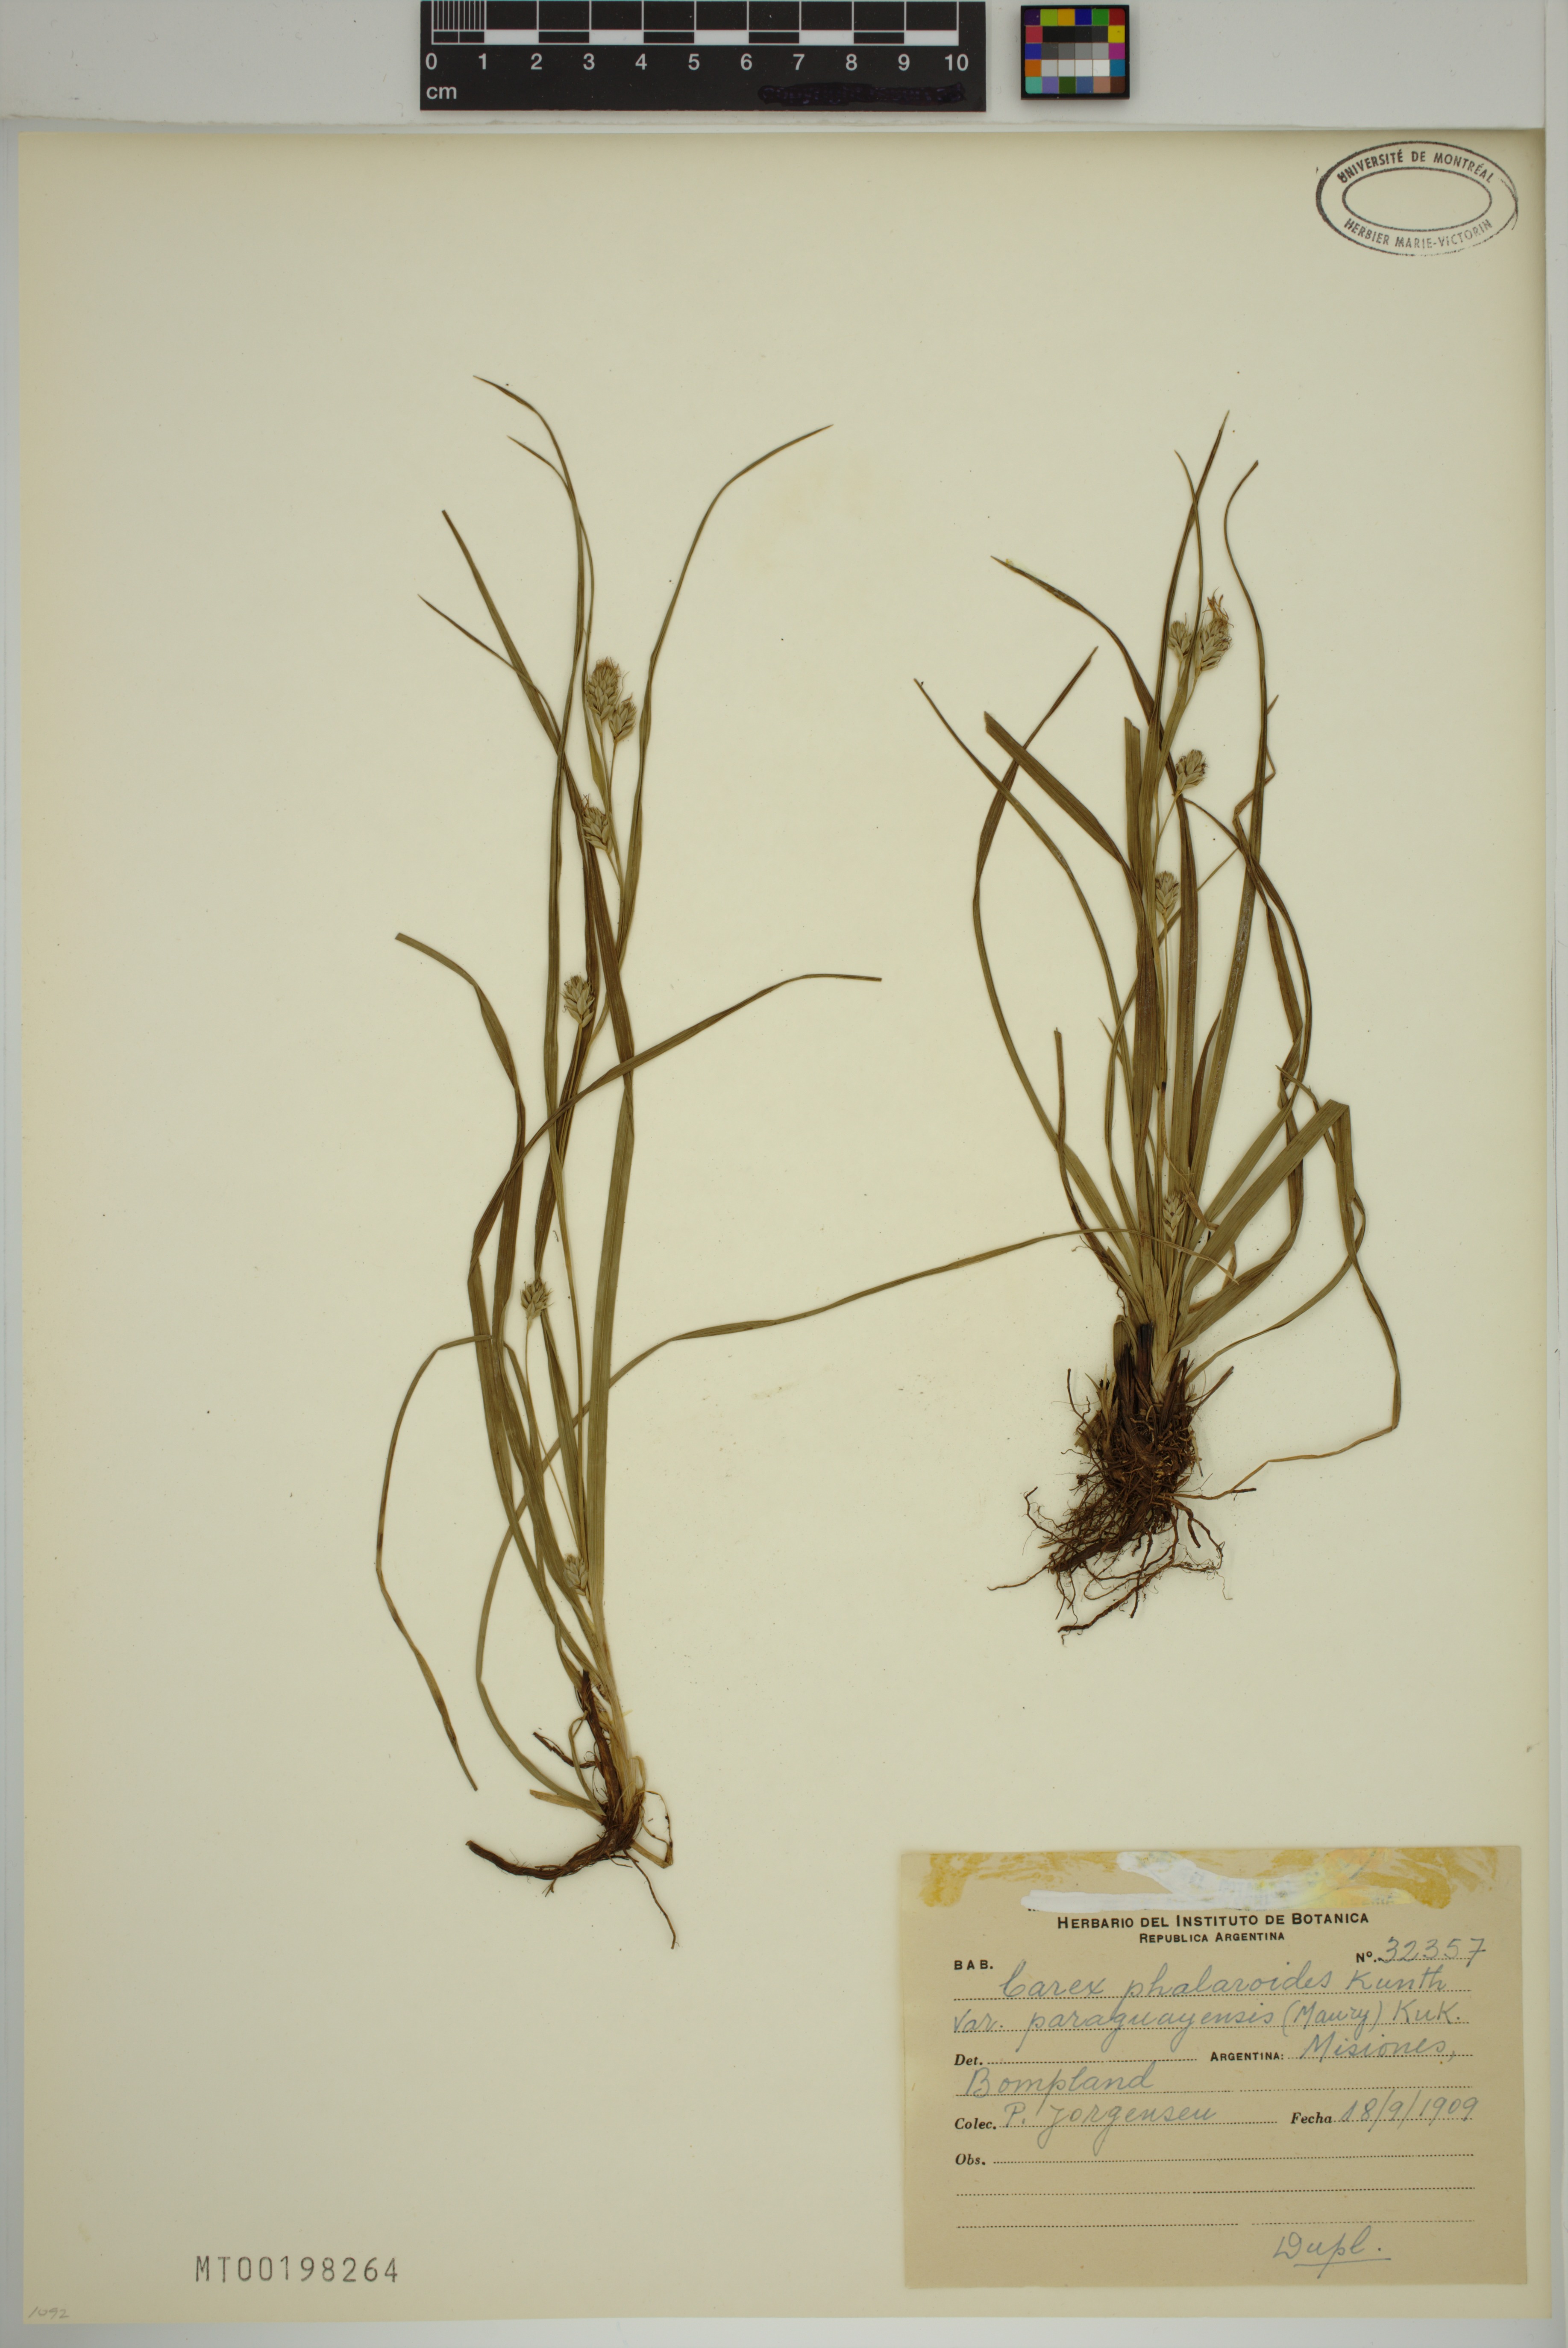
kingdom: Plantae
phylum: Tracheophyta
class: Liliopsida
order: Poales
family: Cyperaceae
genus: Carex
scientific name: Carex moesta
